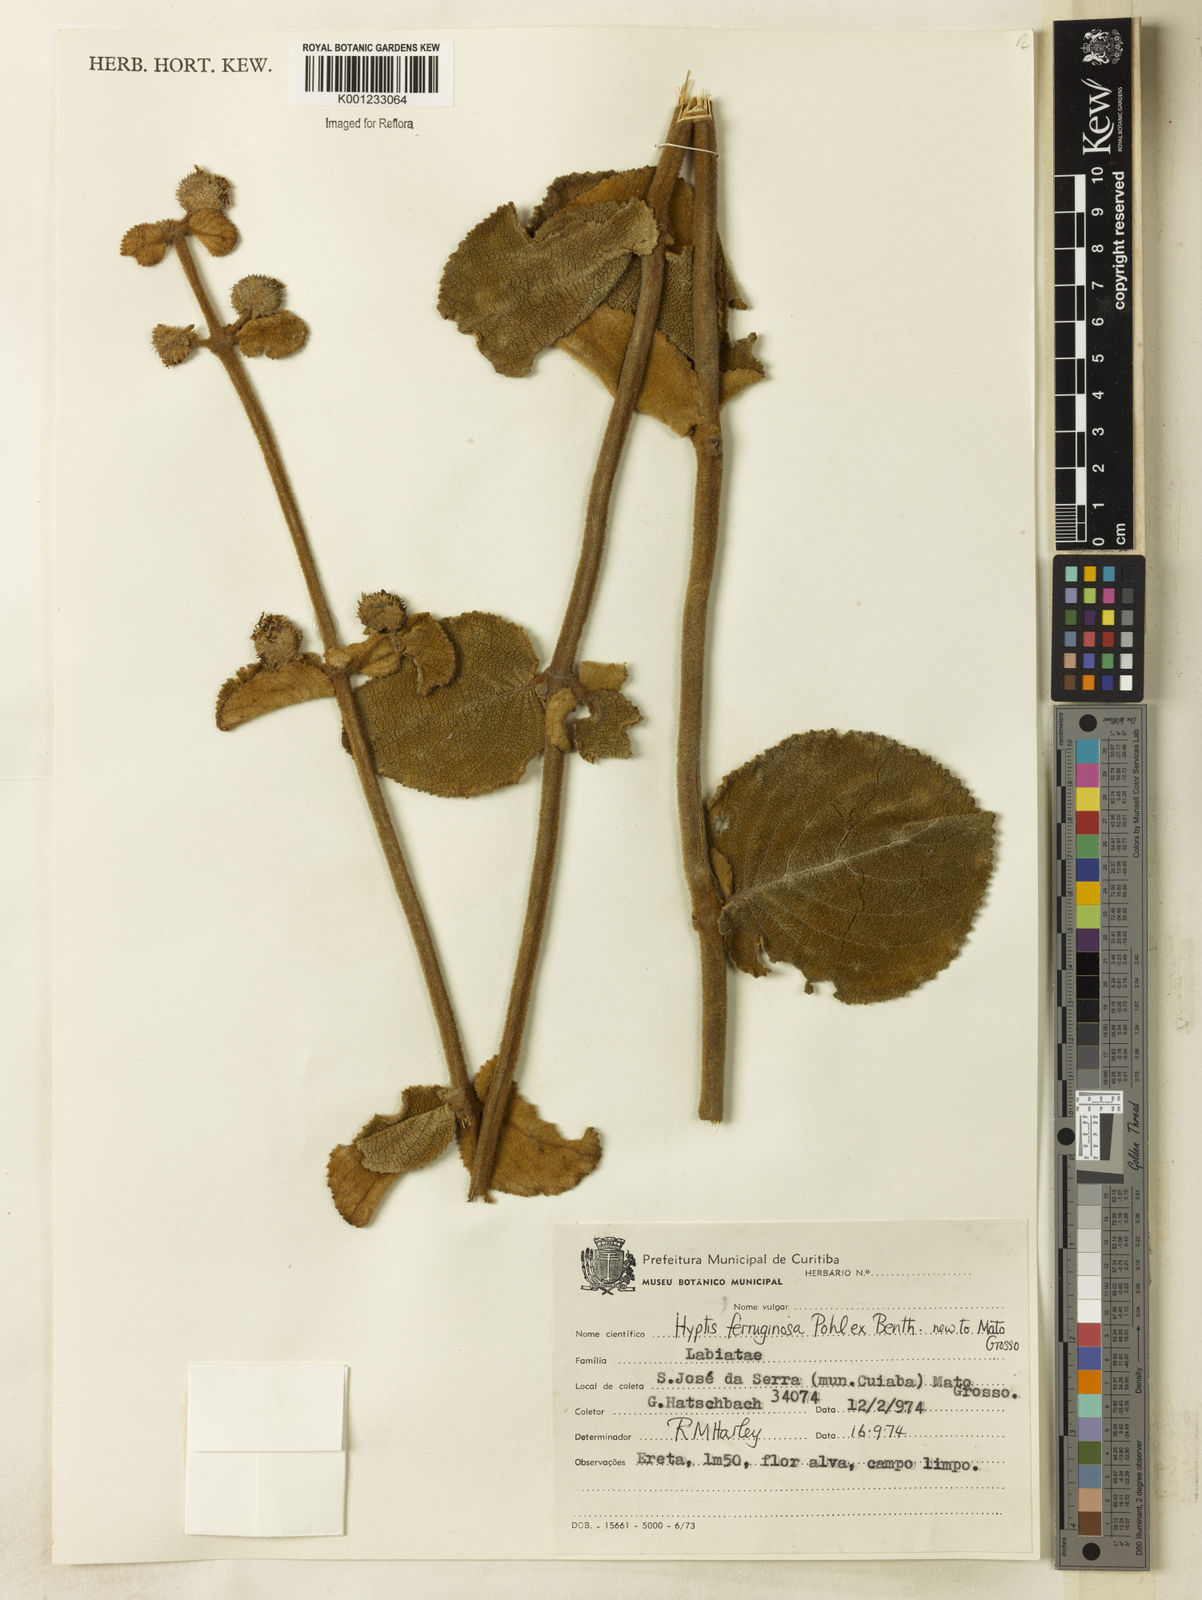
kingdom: Plantae
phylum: Tracheophyta
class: Magnoliopsida
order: Lamiales
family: Lamiaceae
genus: Hyptis
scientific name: Hyptis ferruginosa
